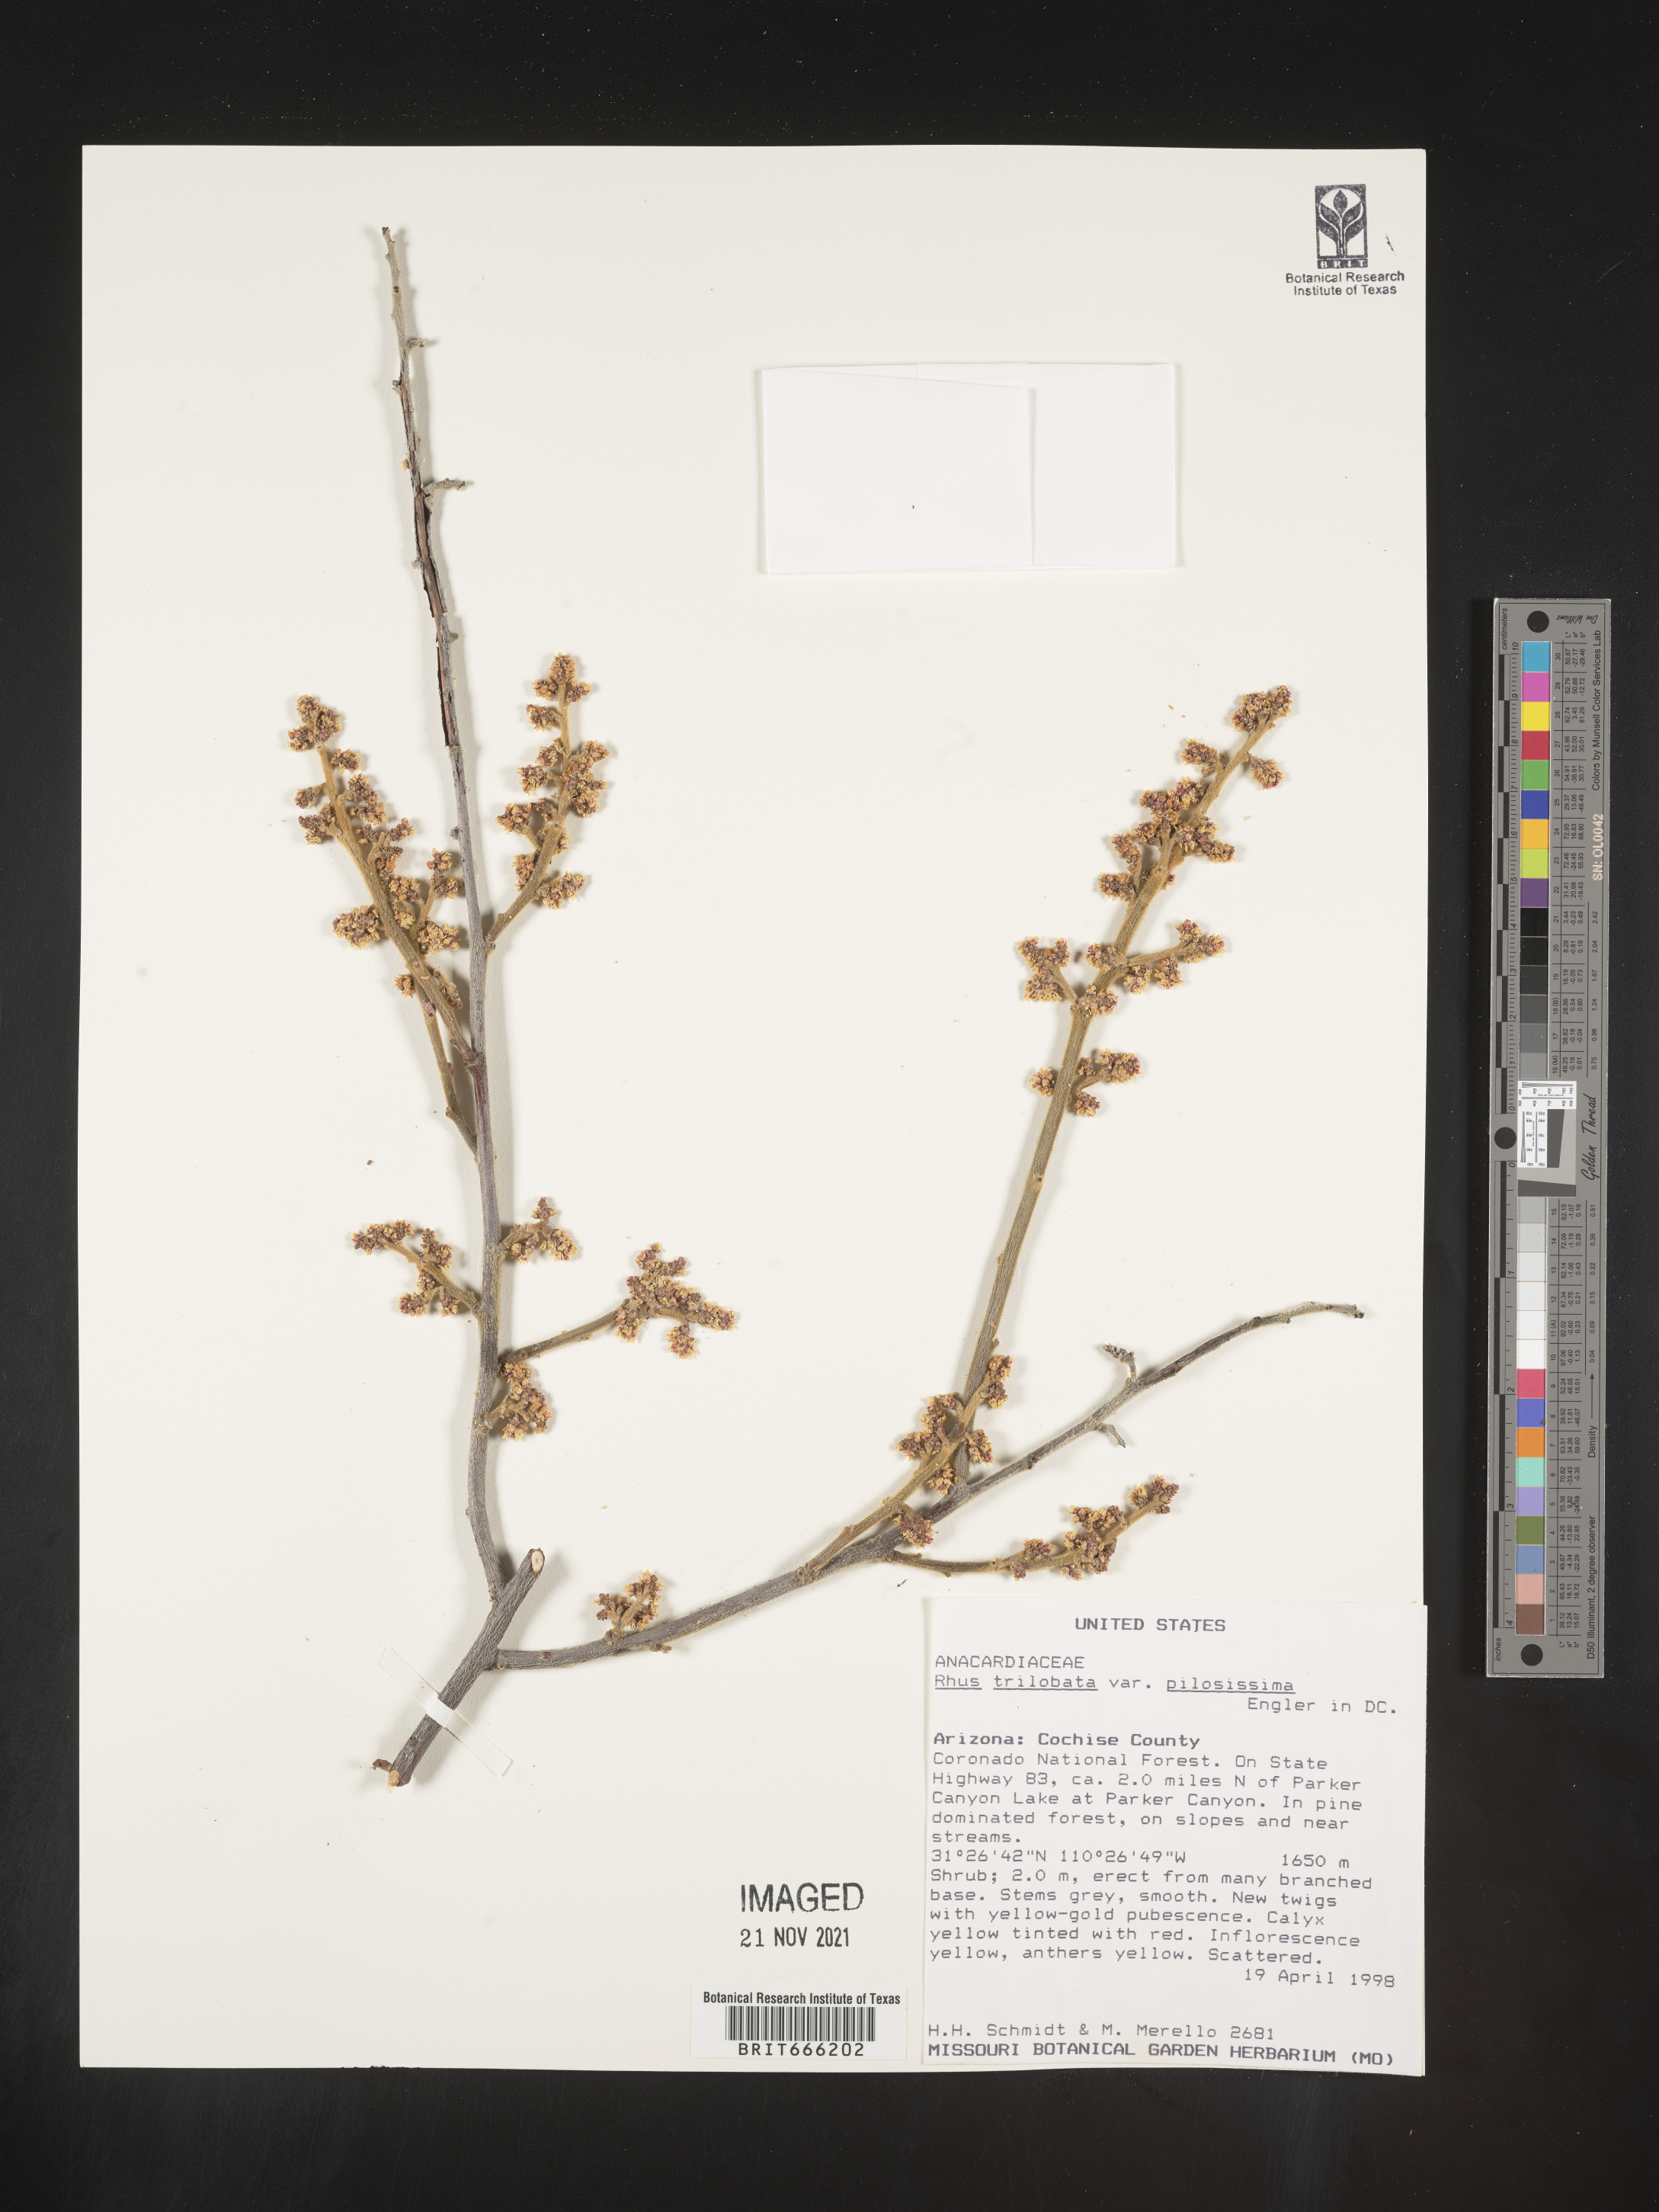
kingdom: Plantae
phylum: Tracheophyta
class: Magnoliopsida
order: Sapindales
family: Anacardiaceae
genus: Rhus
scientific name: Rhus trilobata
